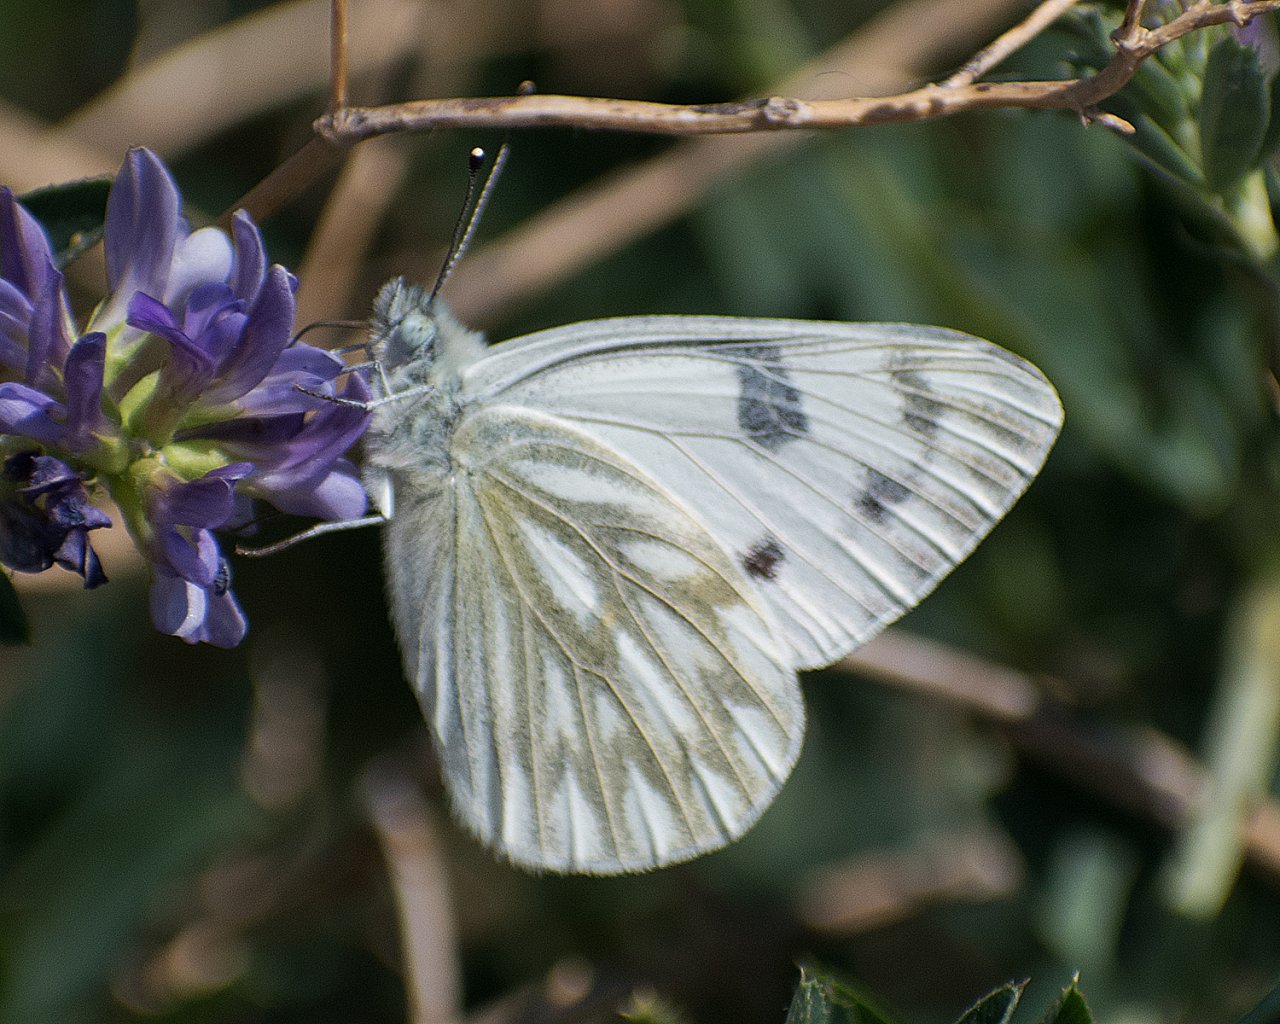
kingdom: Animalia
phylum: Arthropoda
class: Insecta
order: Lepidoptera
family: Pieridae
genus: Pontia
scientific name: Pontia occidentalis
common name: Western White
